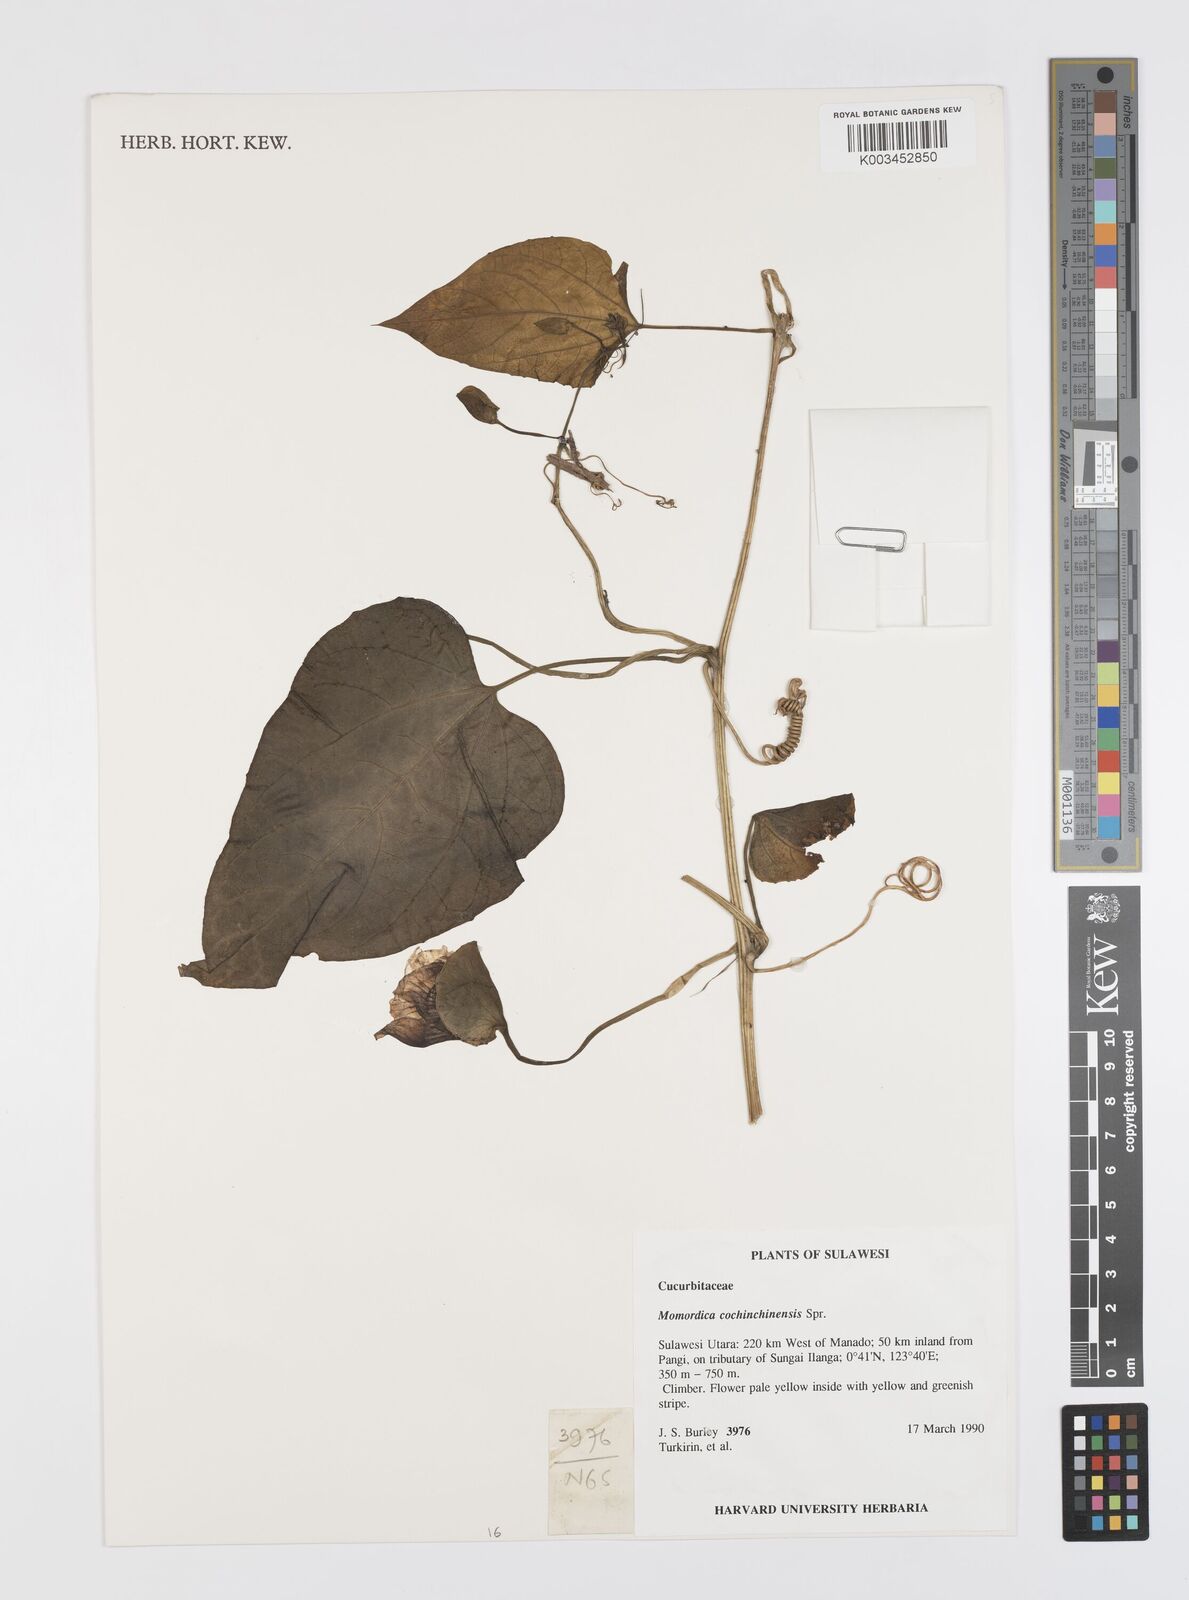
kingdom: Plantae
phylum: Tracheophyta
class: Magnoliopsida
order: Cucurbitales
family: Cucurbitaceae
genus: Momordica
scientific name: Momordica cochinchinensis
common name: Chinese bitter-cucumber
